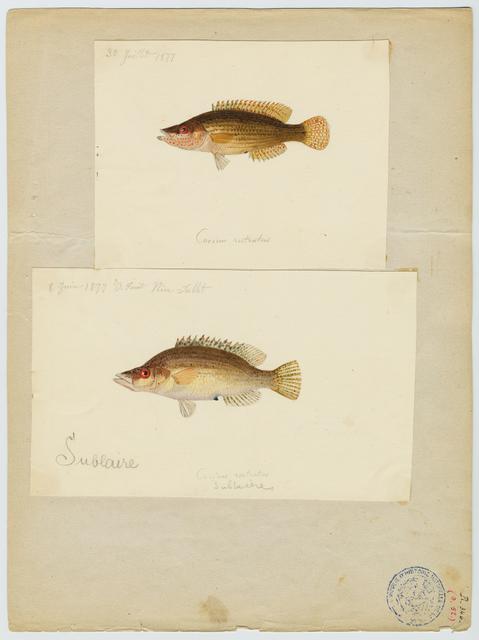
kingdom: Animalia
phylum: Chordata
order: Perciformes
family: Labridae
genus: Symphodus
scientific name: Symphodus rostratus
